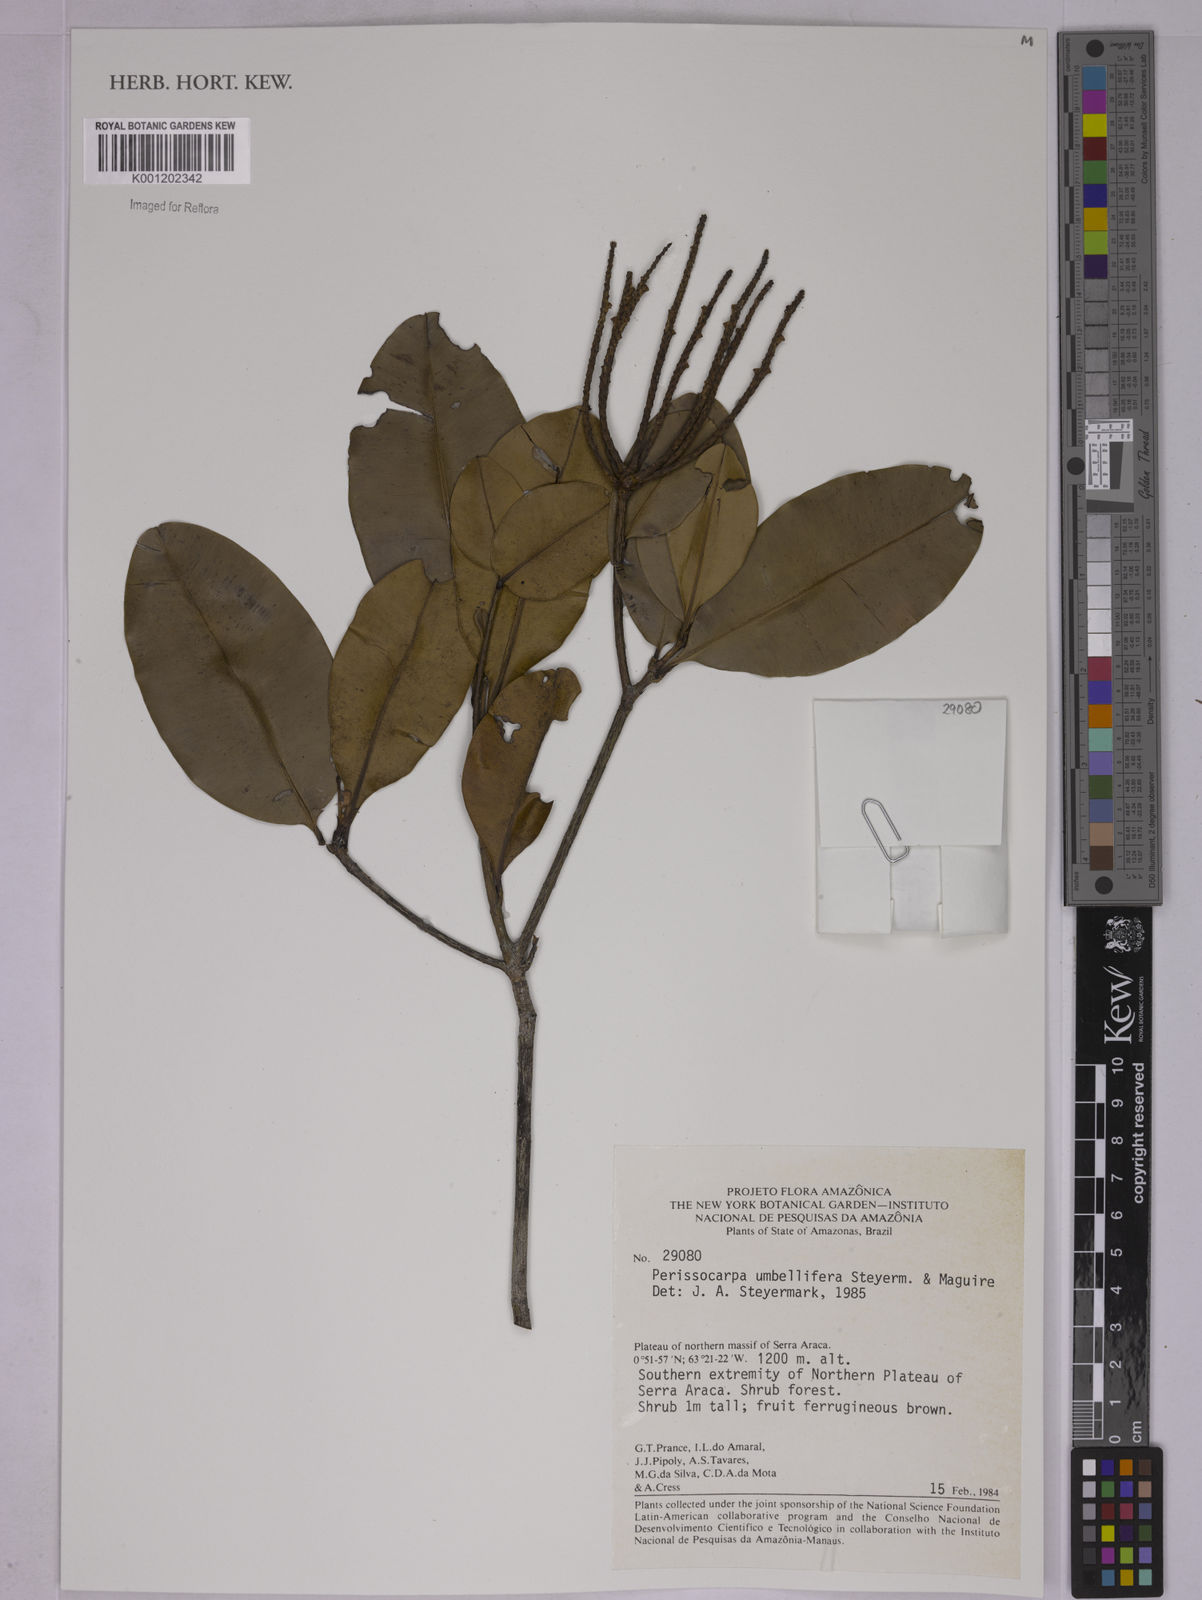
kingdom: Plantae
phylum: Tracheophyta
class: Magnoliopsida
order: Malpighiales
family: Ochnaceae
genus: Perissocarpa
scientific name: Perissocarpa umbellifera
